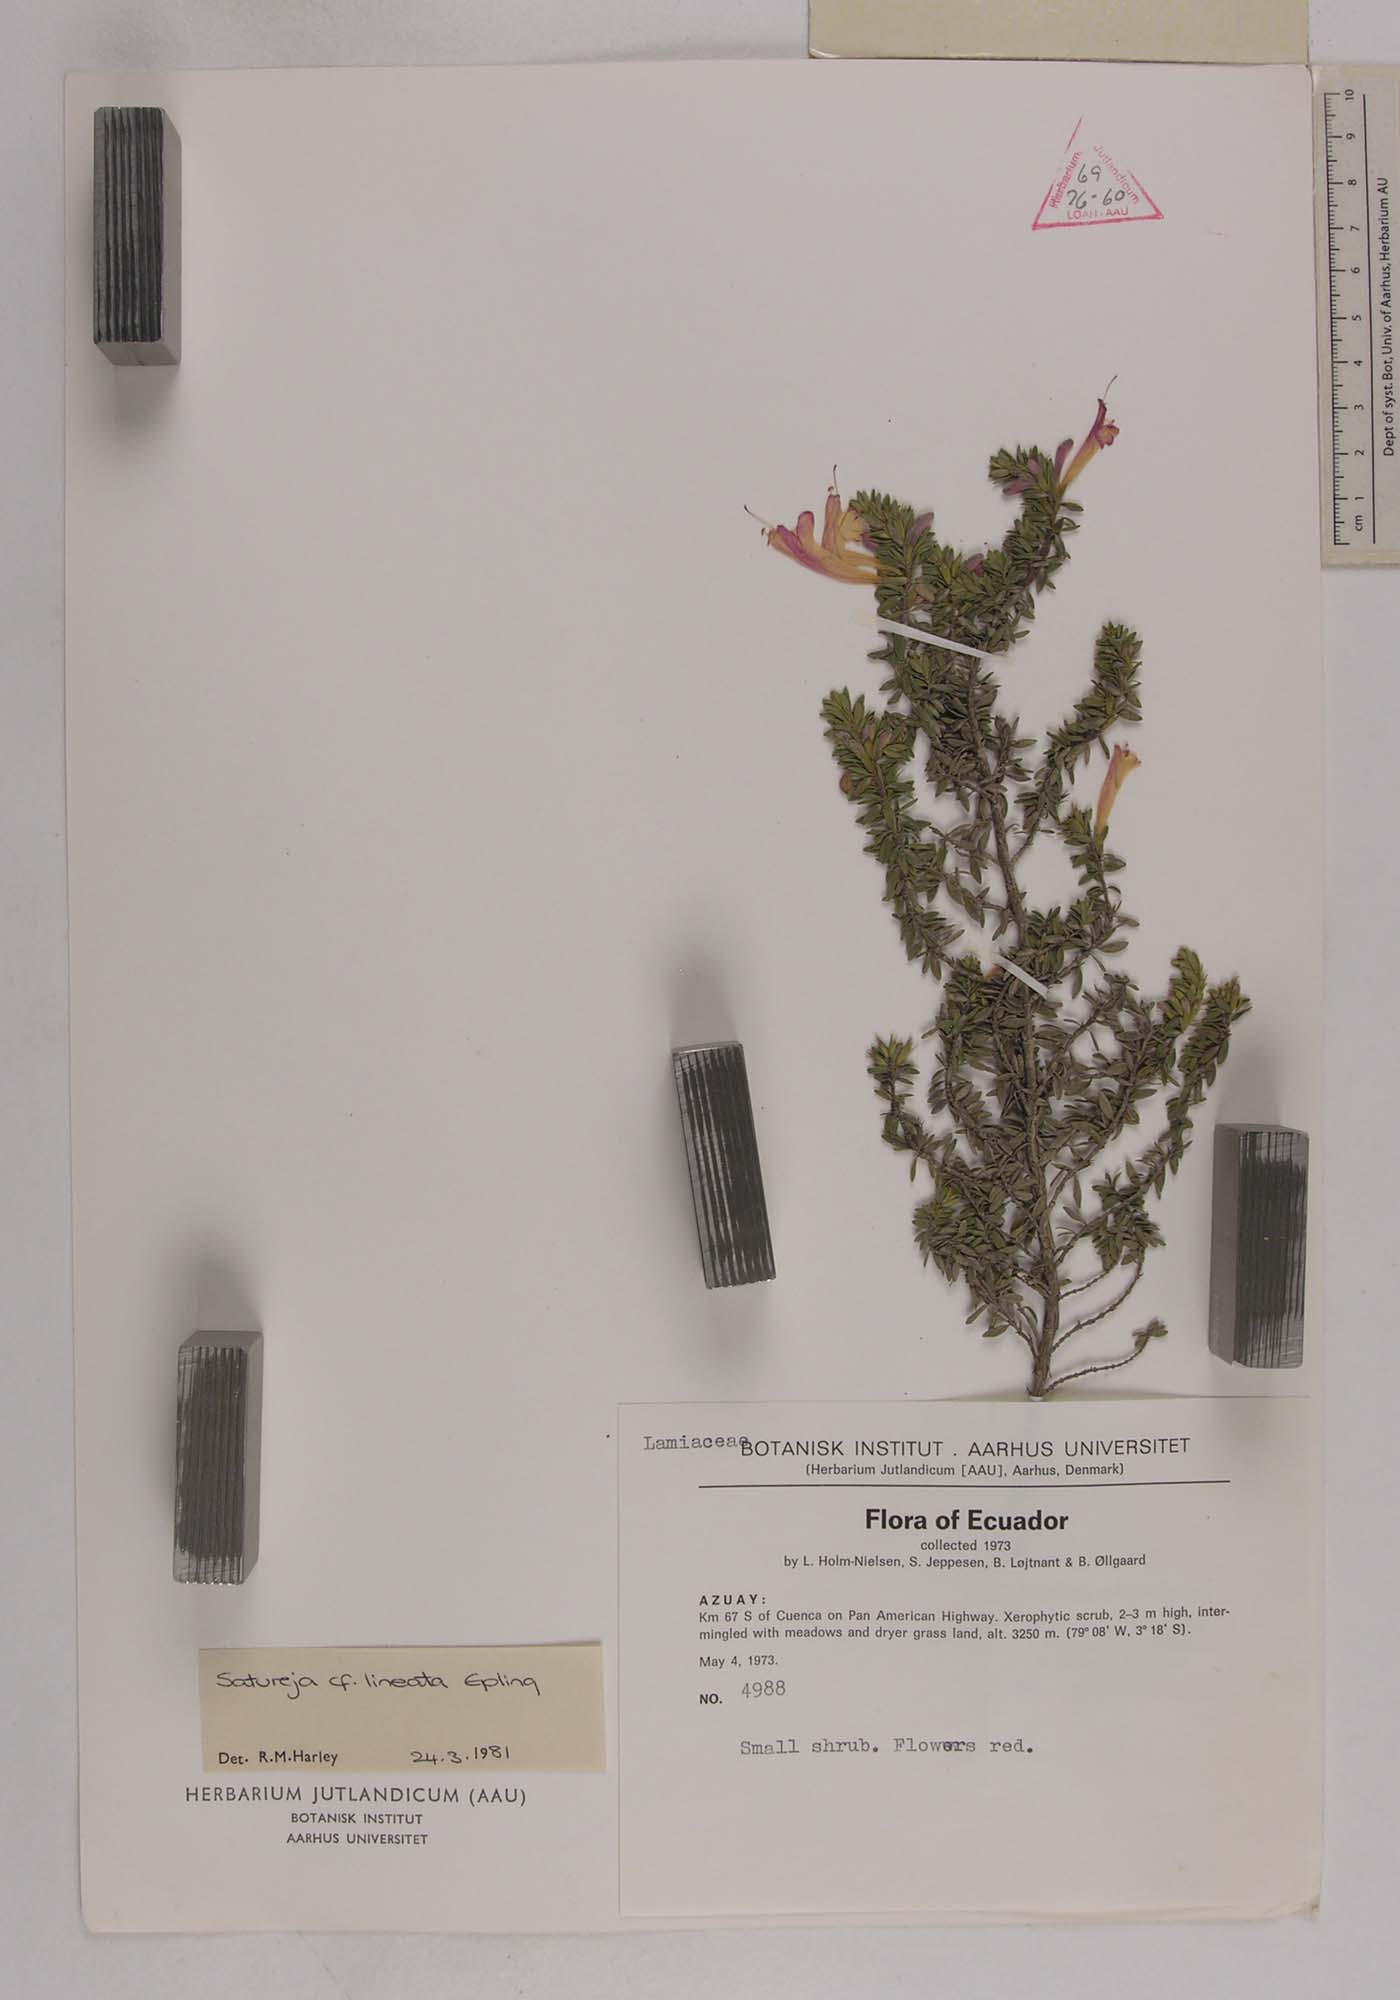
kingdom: Plantae
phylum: Tracheophyta
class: Magnoliopsida
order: Lamiales
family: Lamiaceae
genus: Clinopodium
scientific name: Clinopodium taxifolium
